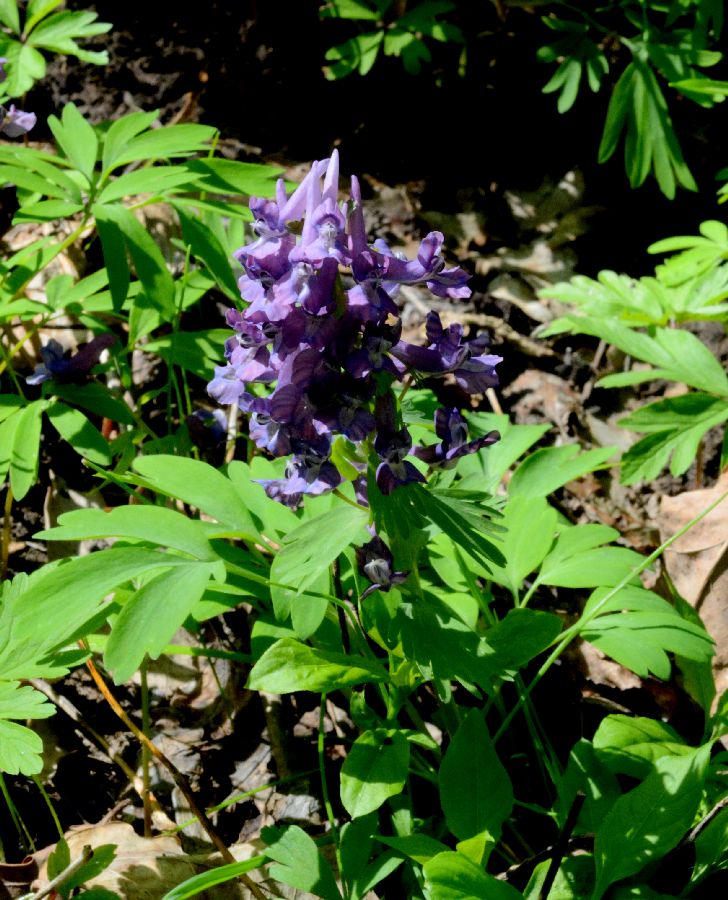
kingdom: Plantae
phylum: Tracheophyta
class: Magnoliopsida
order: Ranunculales
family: Papaveraceae
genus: Corydalis
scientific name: Corydalis solida
